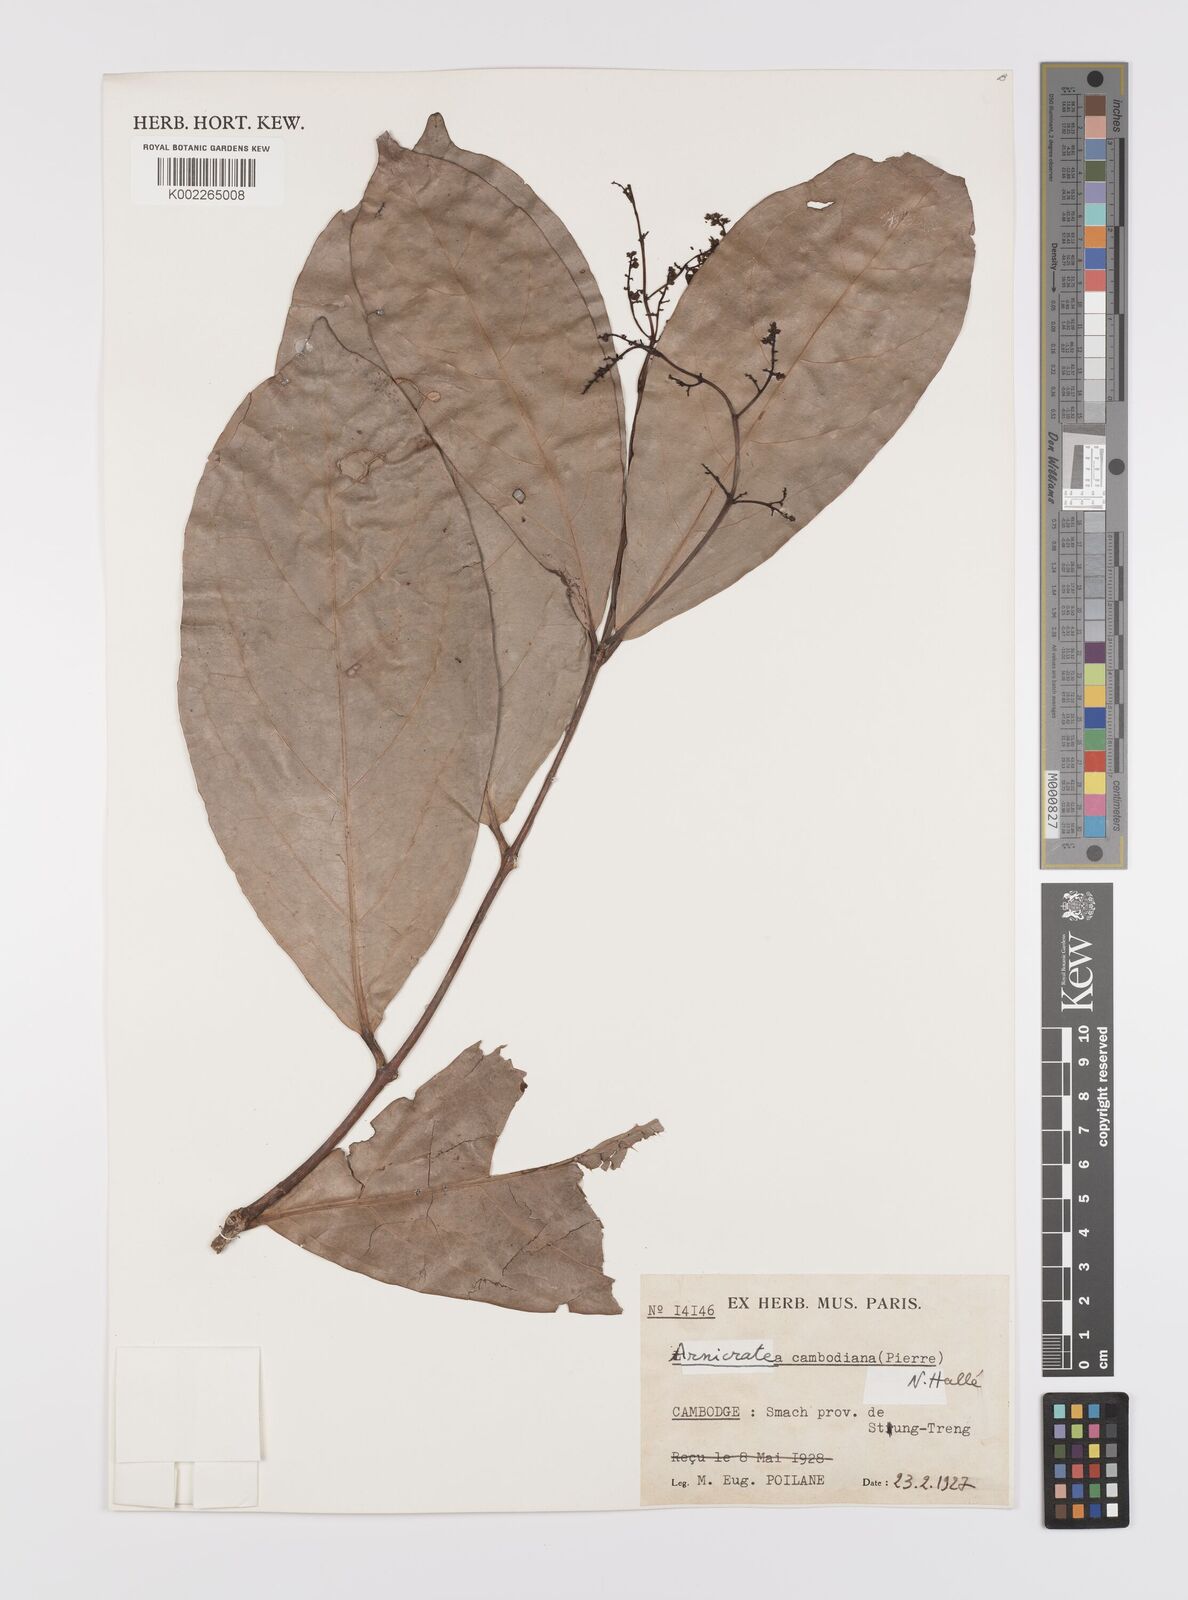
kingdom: Plantae
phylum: Tracheophyta
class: Magnoliopsida
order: Celastrales
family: Celastraceae
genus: Arnicratea
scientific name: Arnicratea cambodiana
